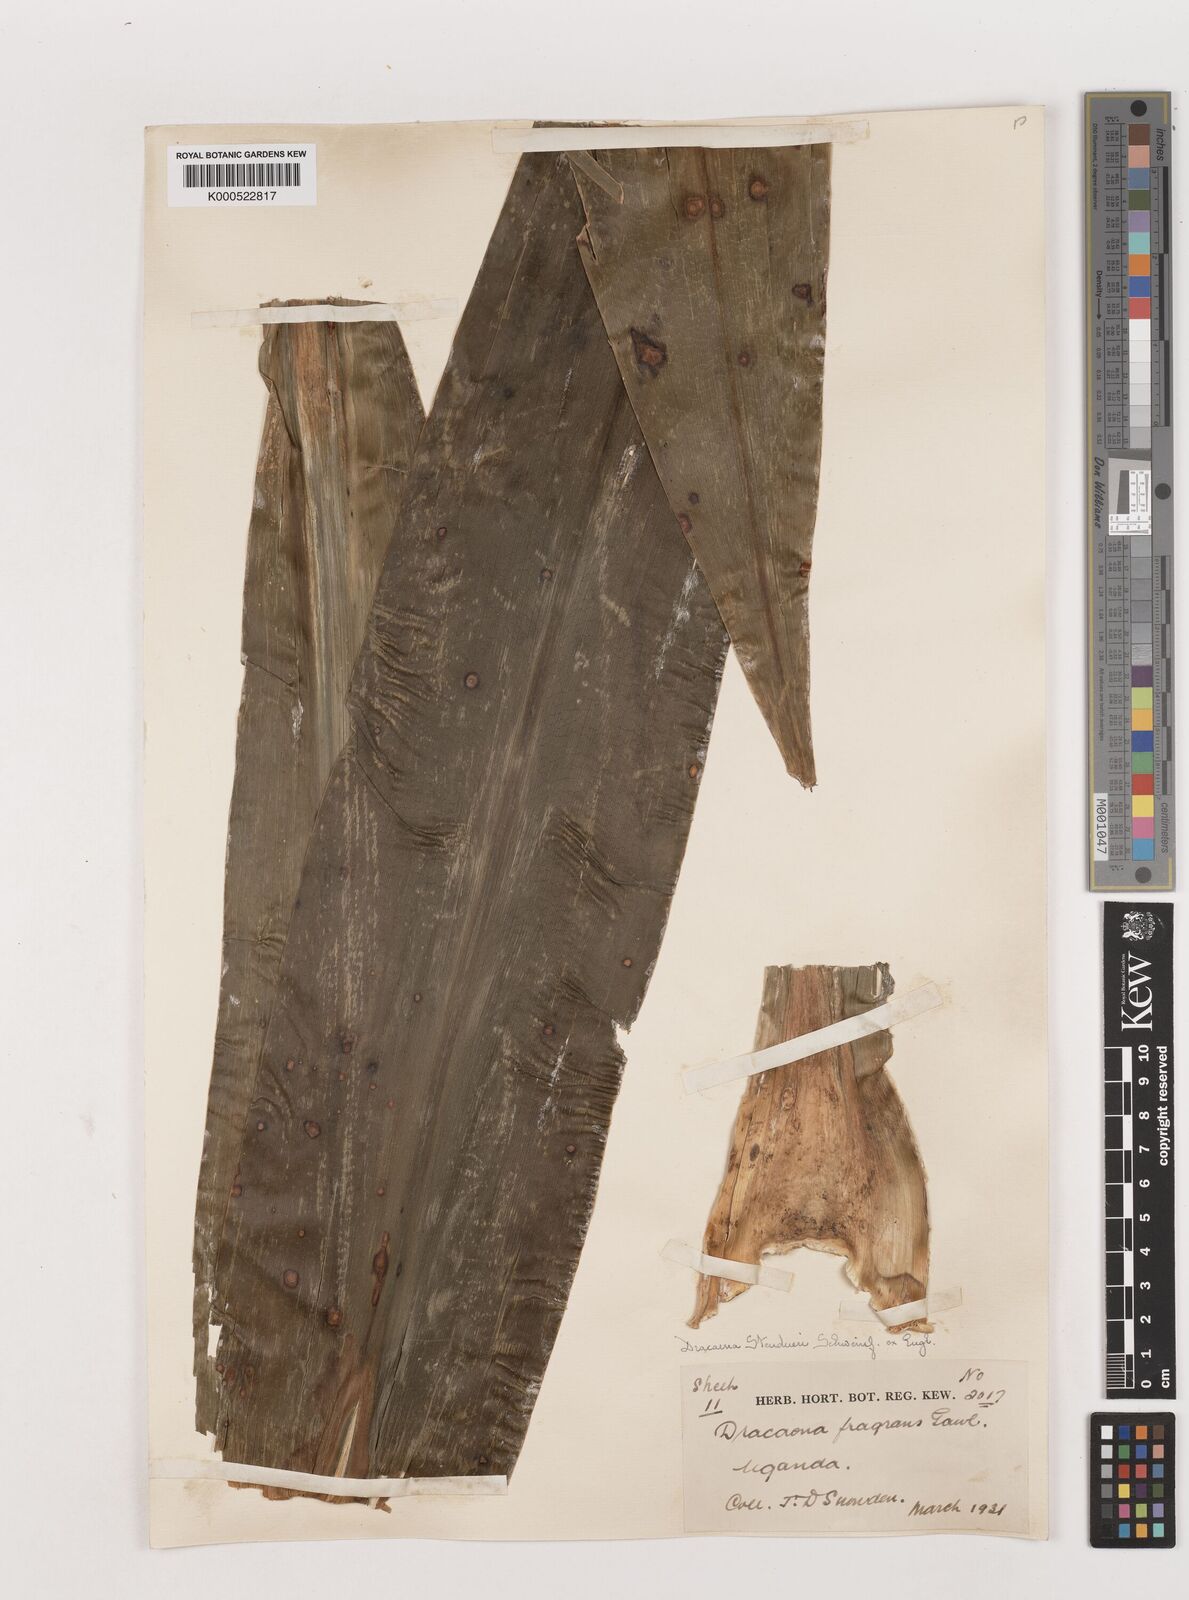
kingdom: Plantae
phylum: Tracheophyta
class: Liliopsida
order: Asparagales
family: Asparagaceae
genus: Dracaena
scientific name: Dracaena steudneri
